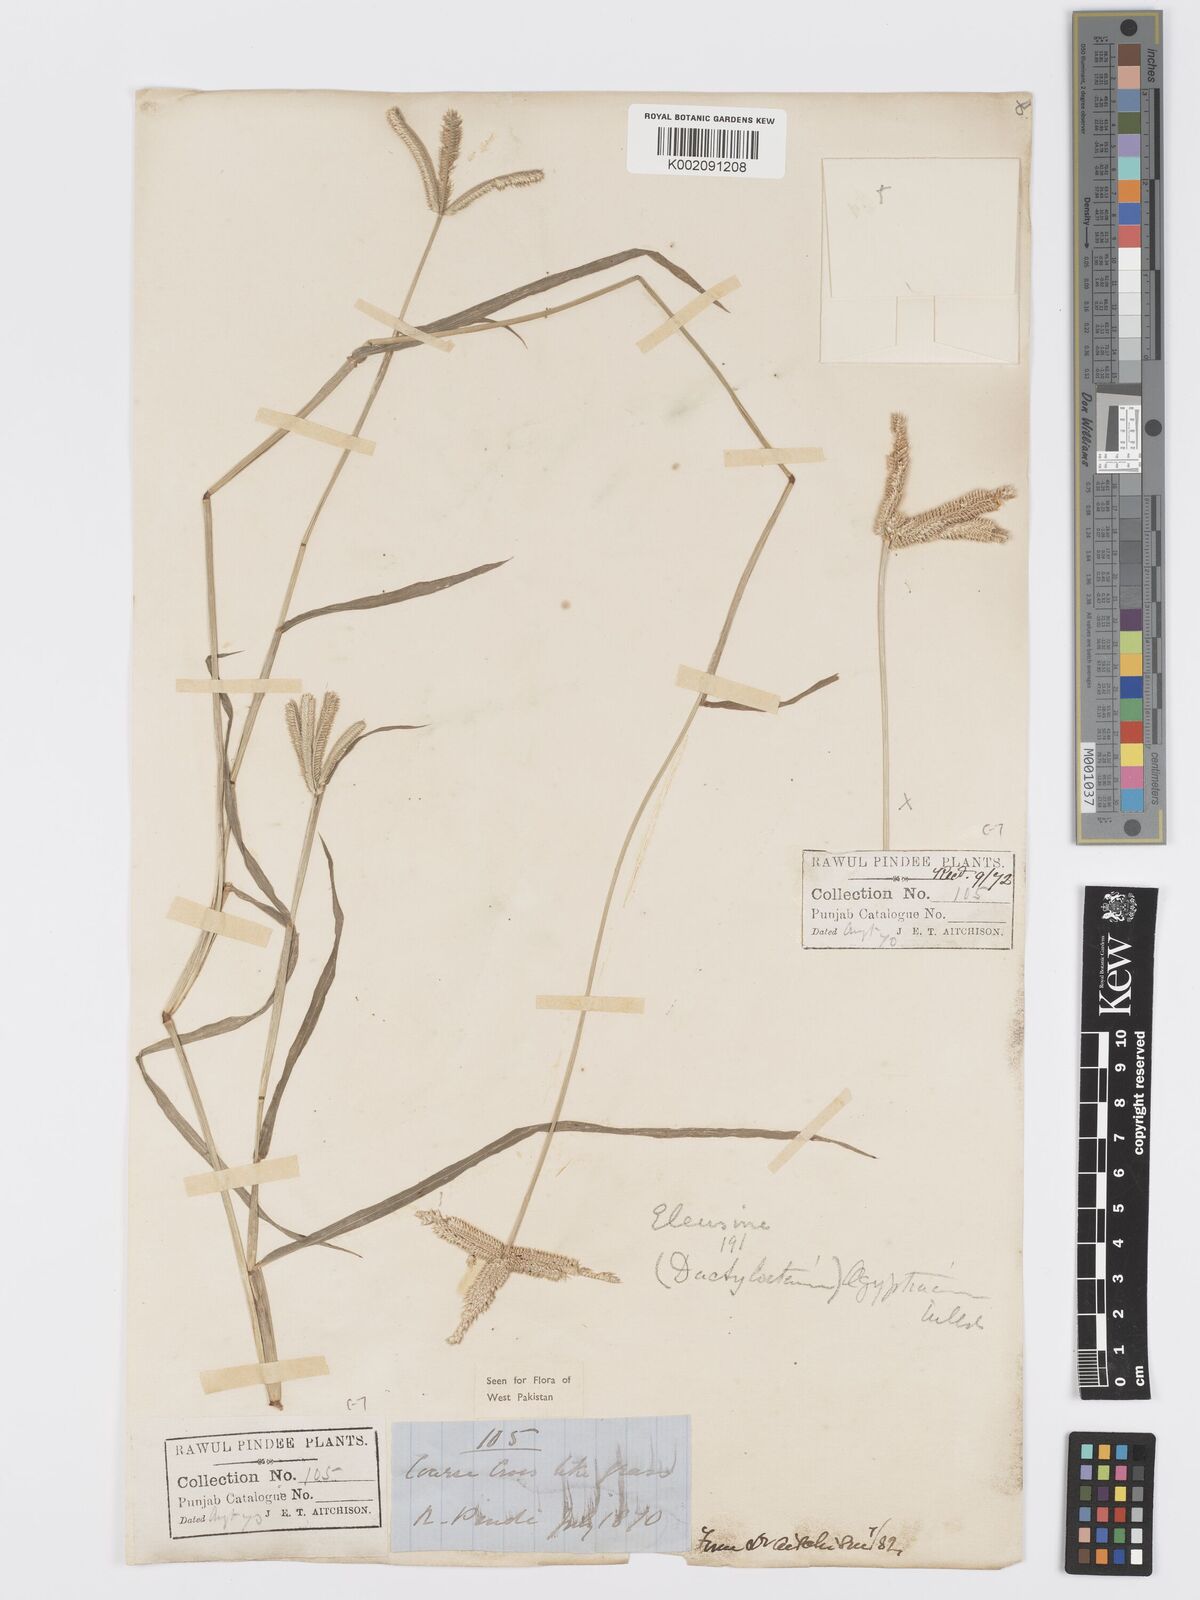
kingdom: Plantae
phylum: Tracheophyta
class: Liliopsida
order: Poales
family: Poaceae
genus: Dactyloctenium
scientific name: Dactyloctenium aegyptium
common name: Egyptian grass
